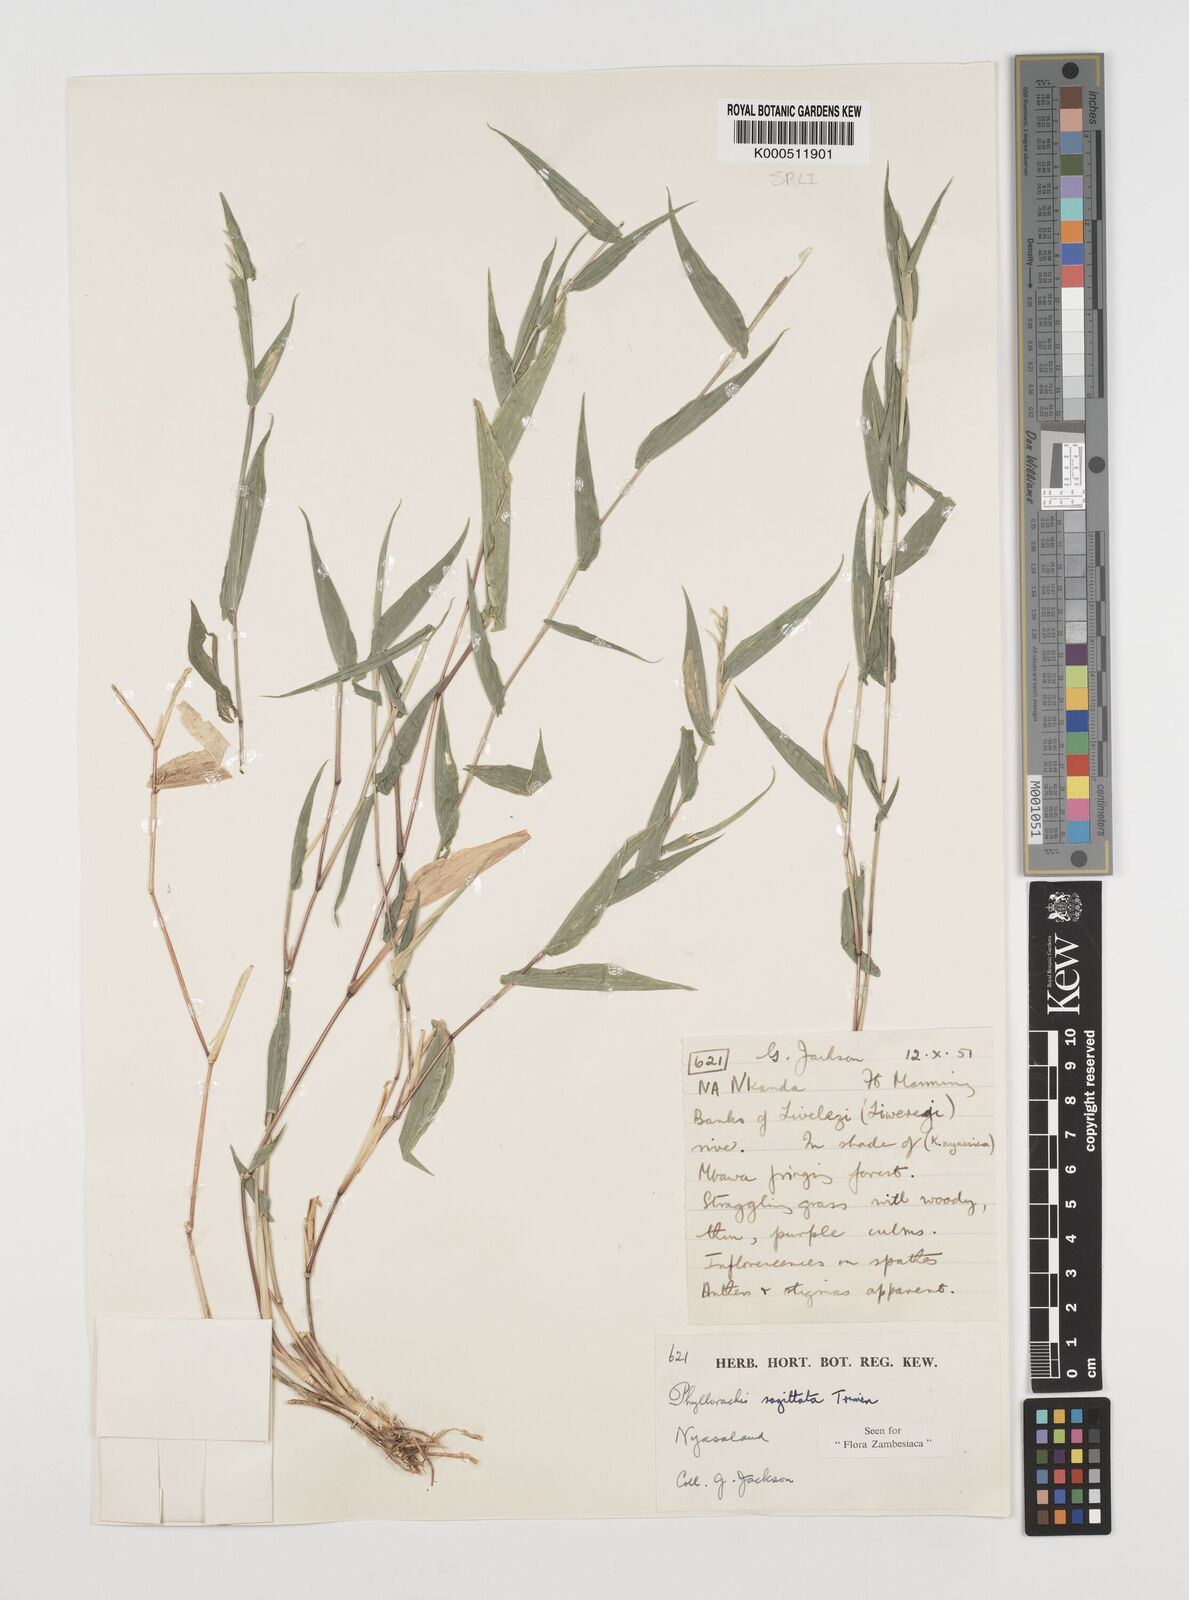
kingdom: Plantae
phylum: Tracheophyta
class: Liliopsida
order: Poales
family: Poaceae
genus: Phyllorachis
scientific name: Phyllorachis sagittata
